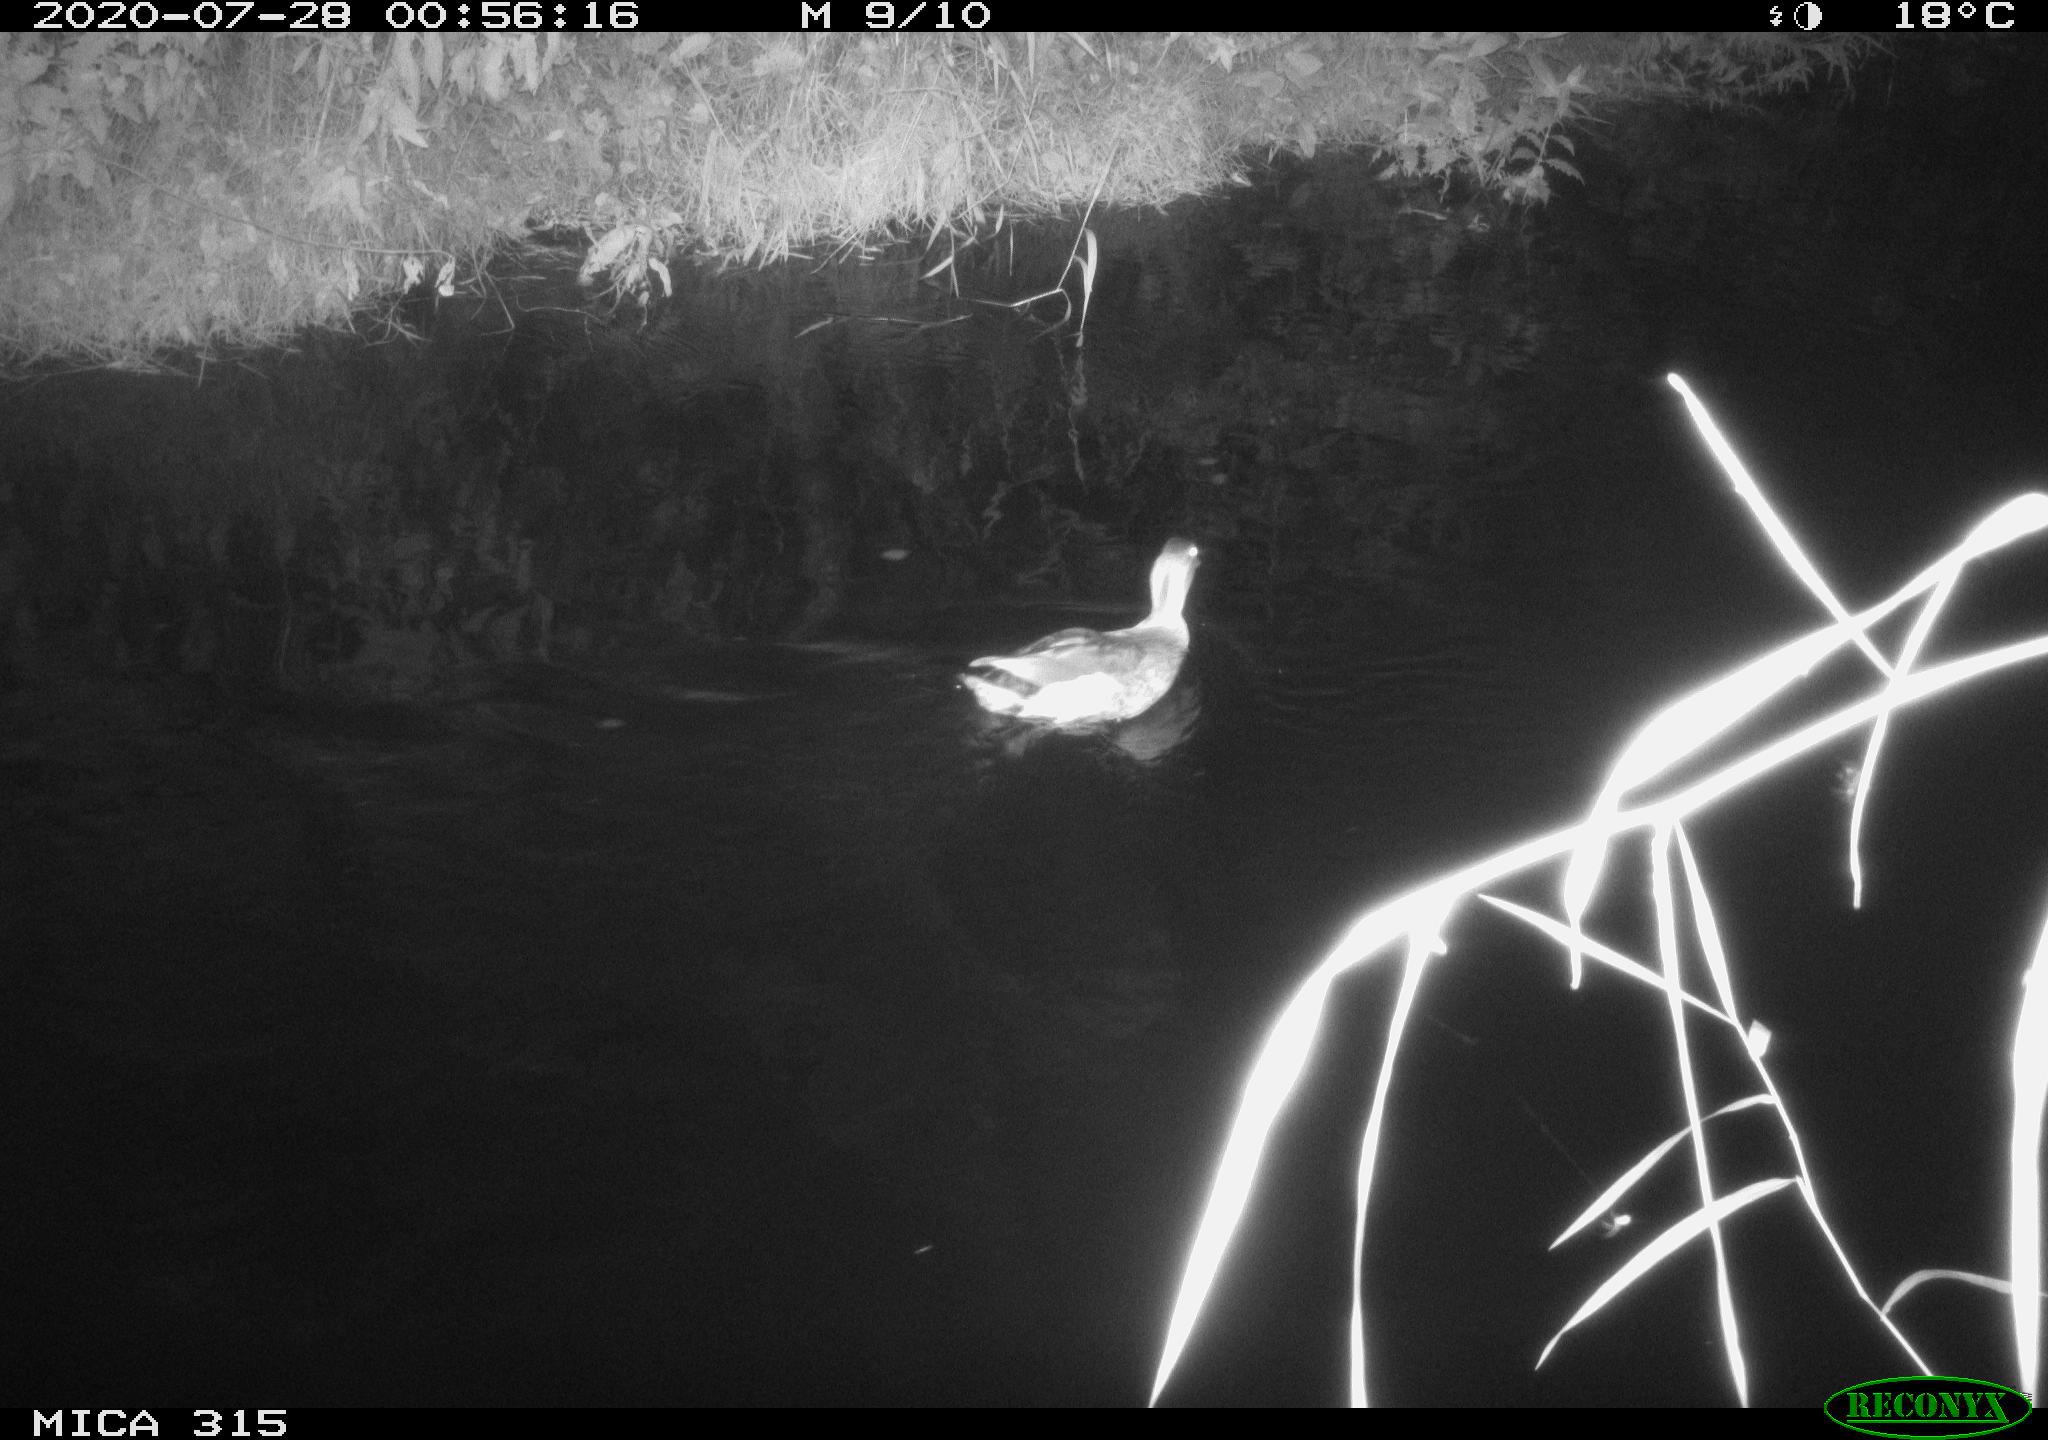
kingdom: Animalia
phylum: Chordata
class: Aves
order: Anseriformes
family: Anatidae
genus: Anas
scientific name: Anas platyrhynchos
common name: Mallard
